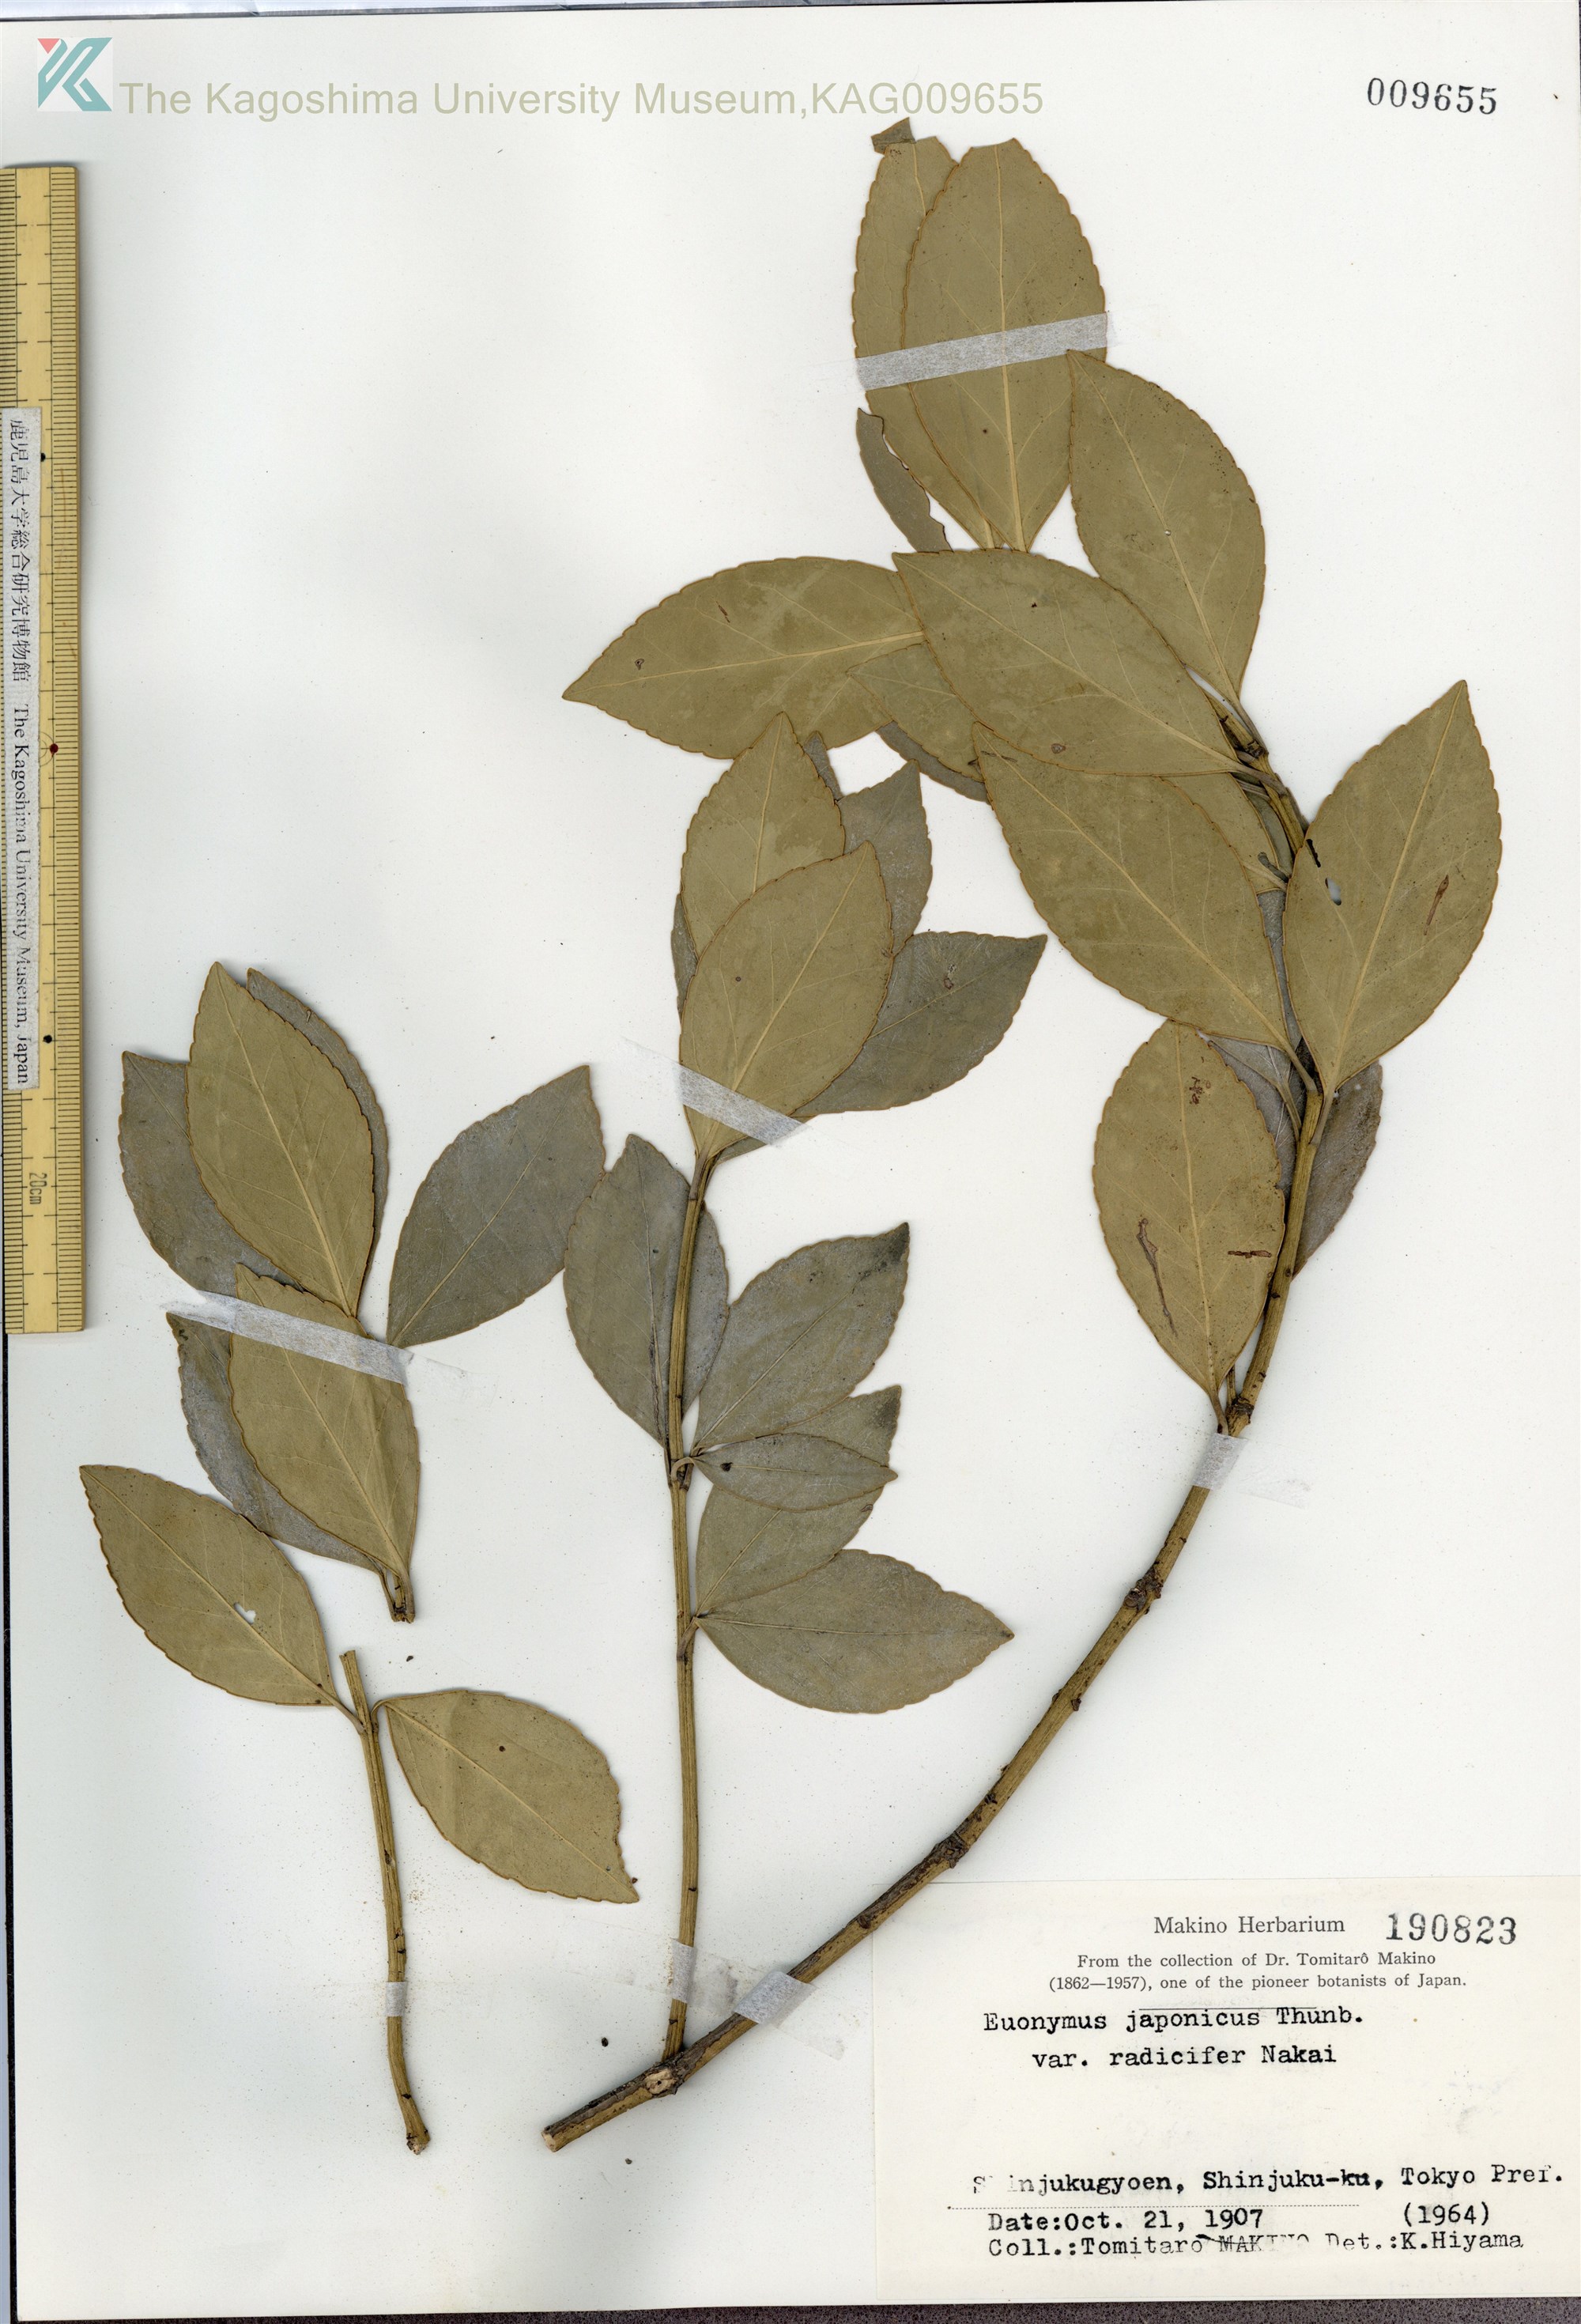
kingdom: Plantae
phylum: Tracheophyta
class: Magnoliopsida
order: Celastrales
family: Celastraceae
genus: Euonymus
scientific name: Euonymus japonicus
